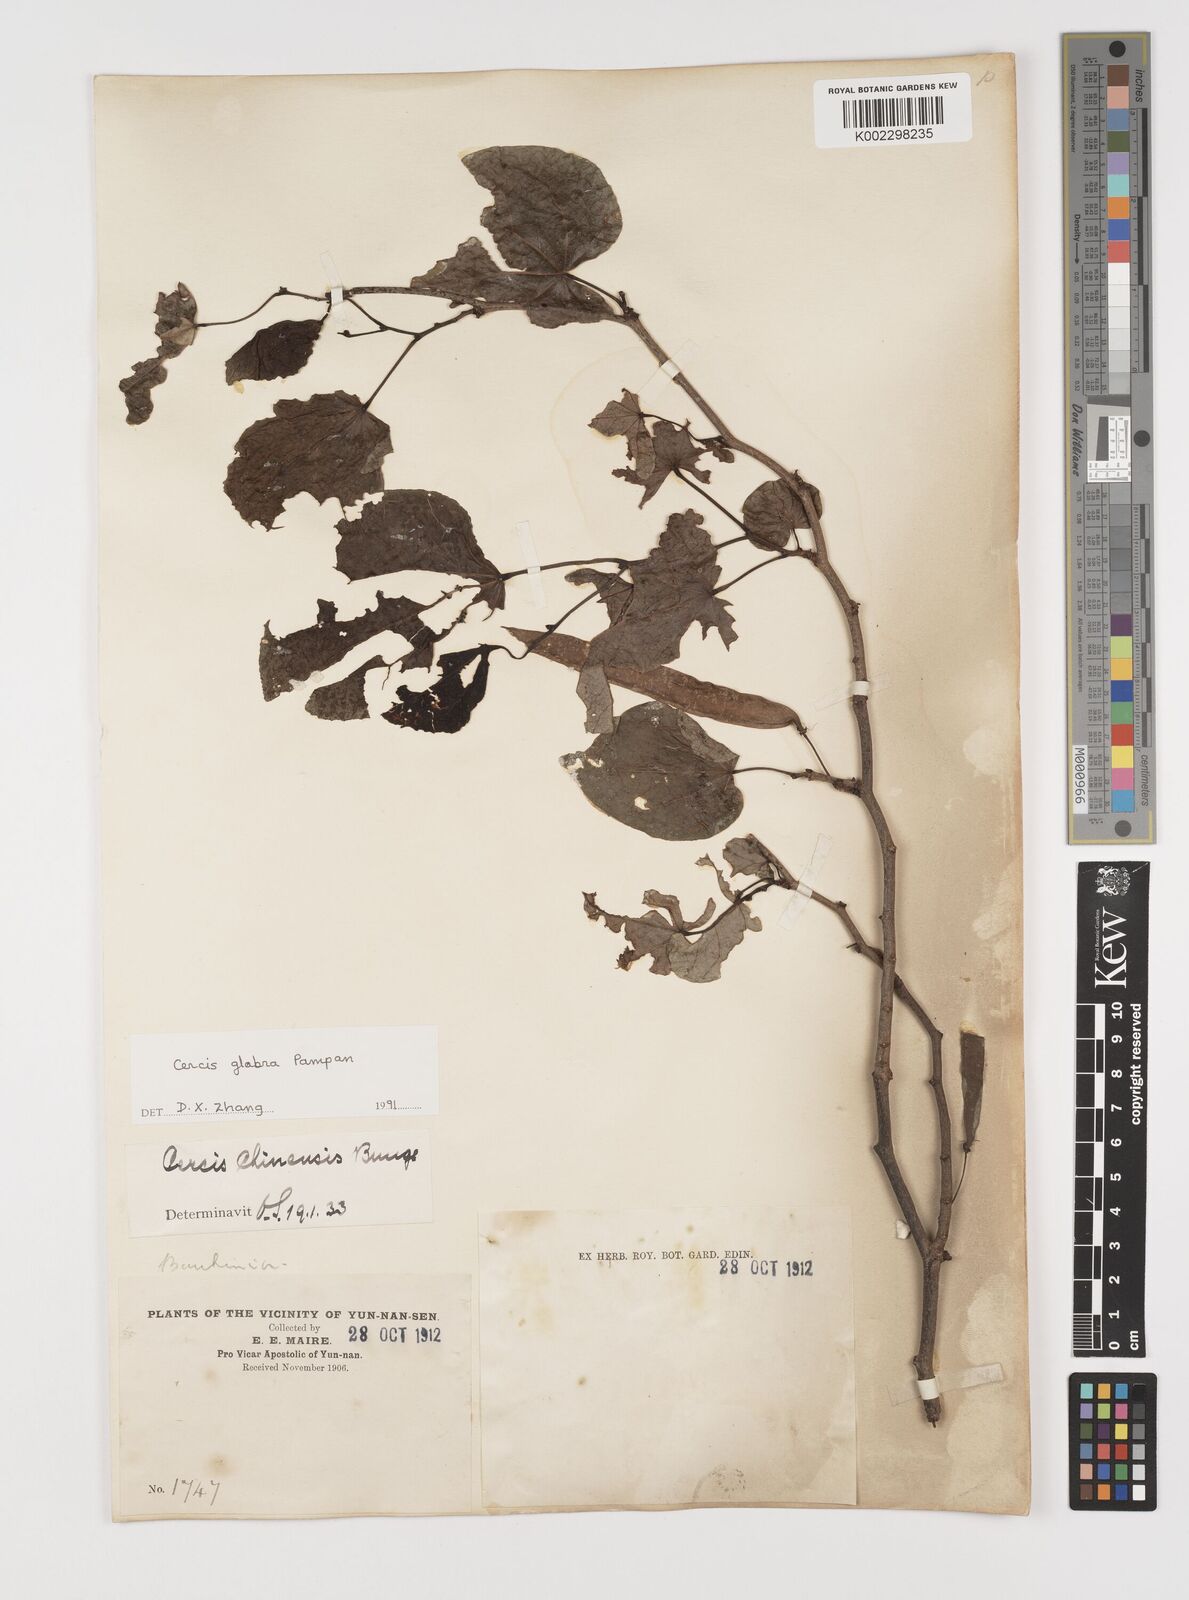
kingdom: Plantae
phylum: Tracheophyta
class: Magnoliopsida
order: Fabales
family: Fabaceae
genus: Cercis
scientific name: Cercis glabra
